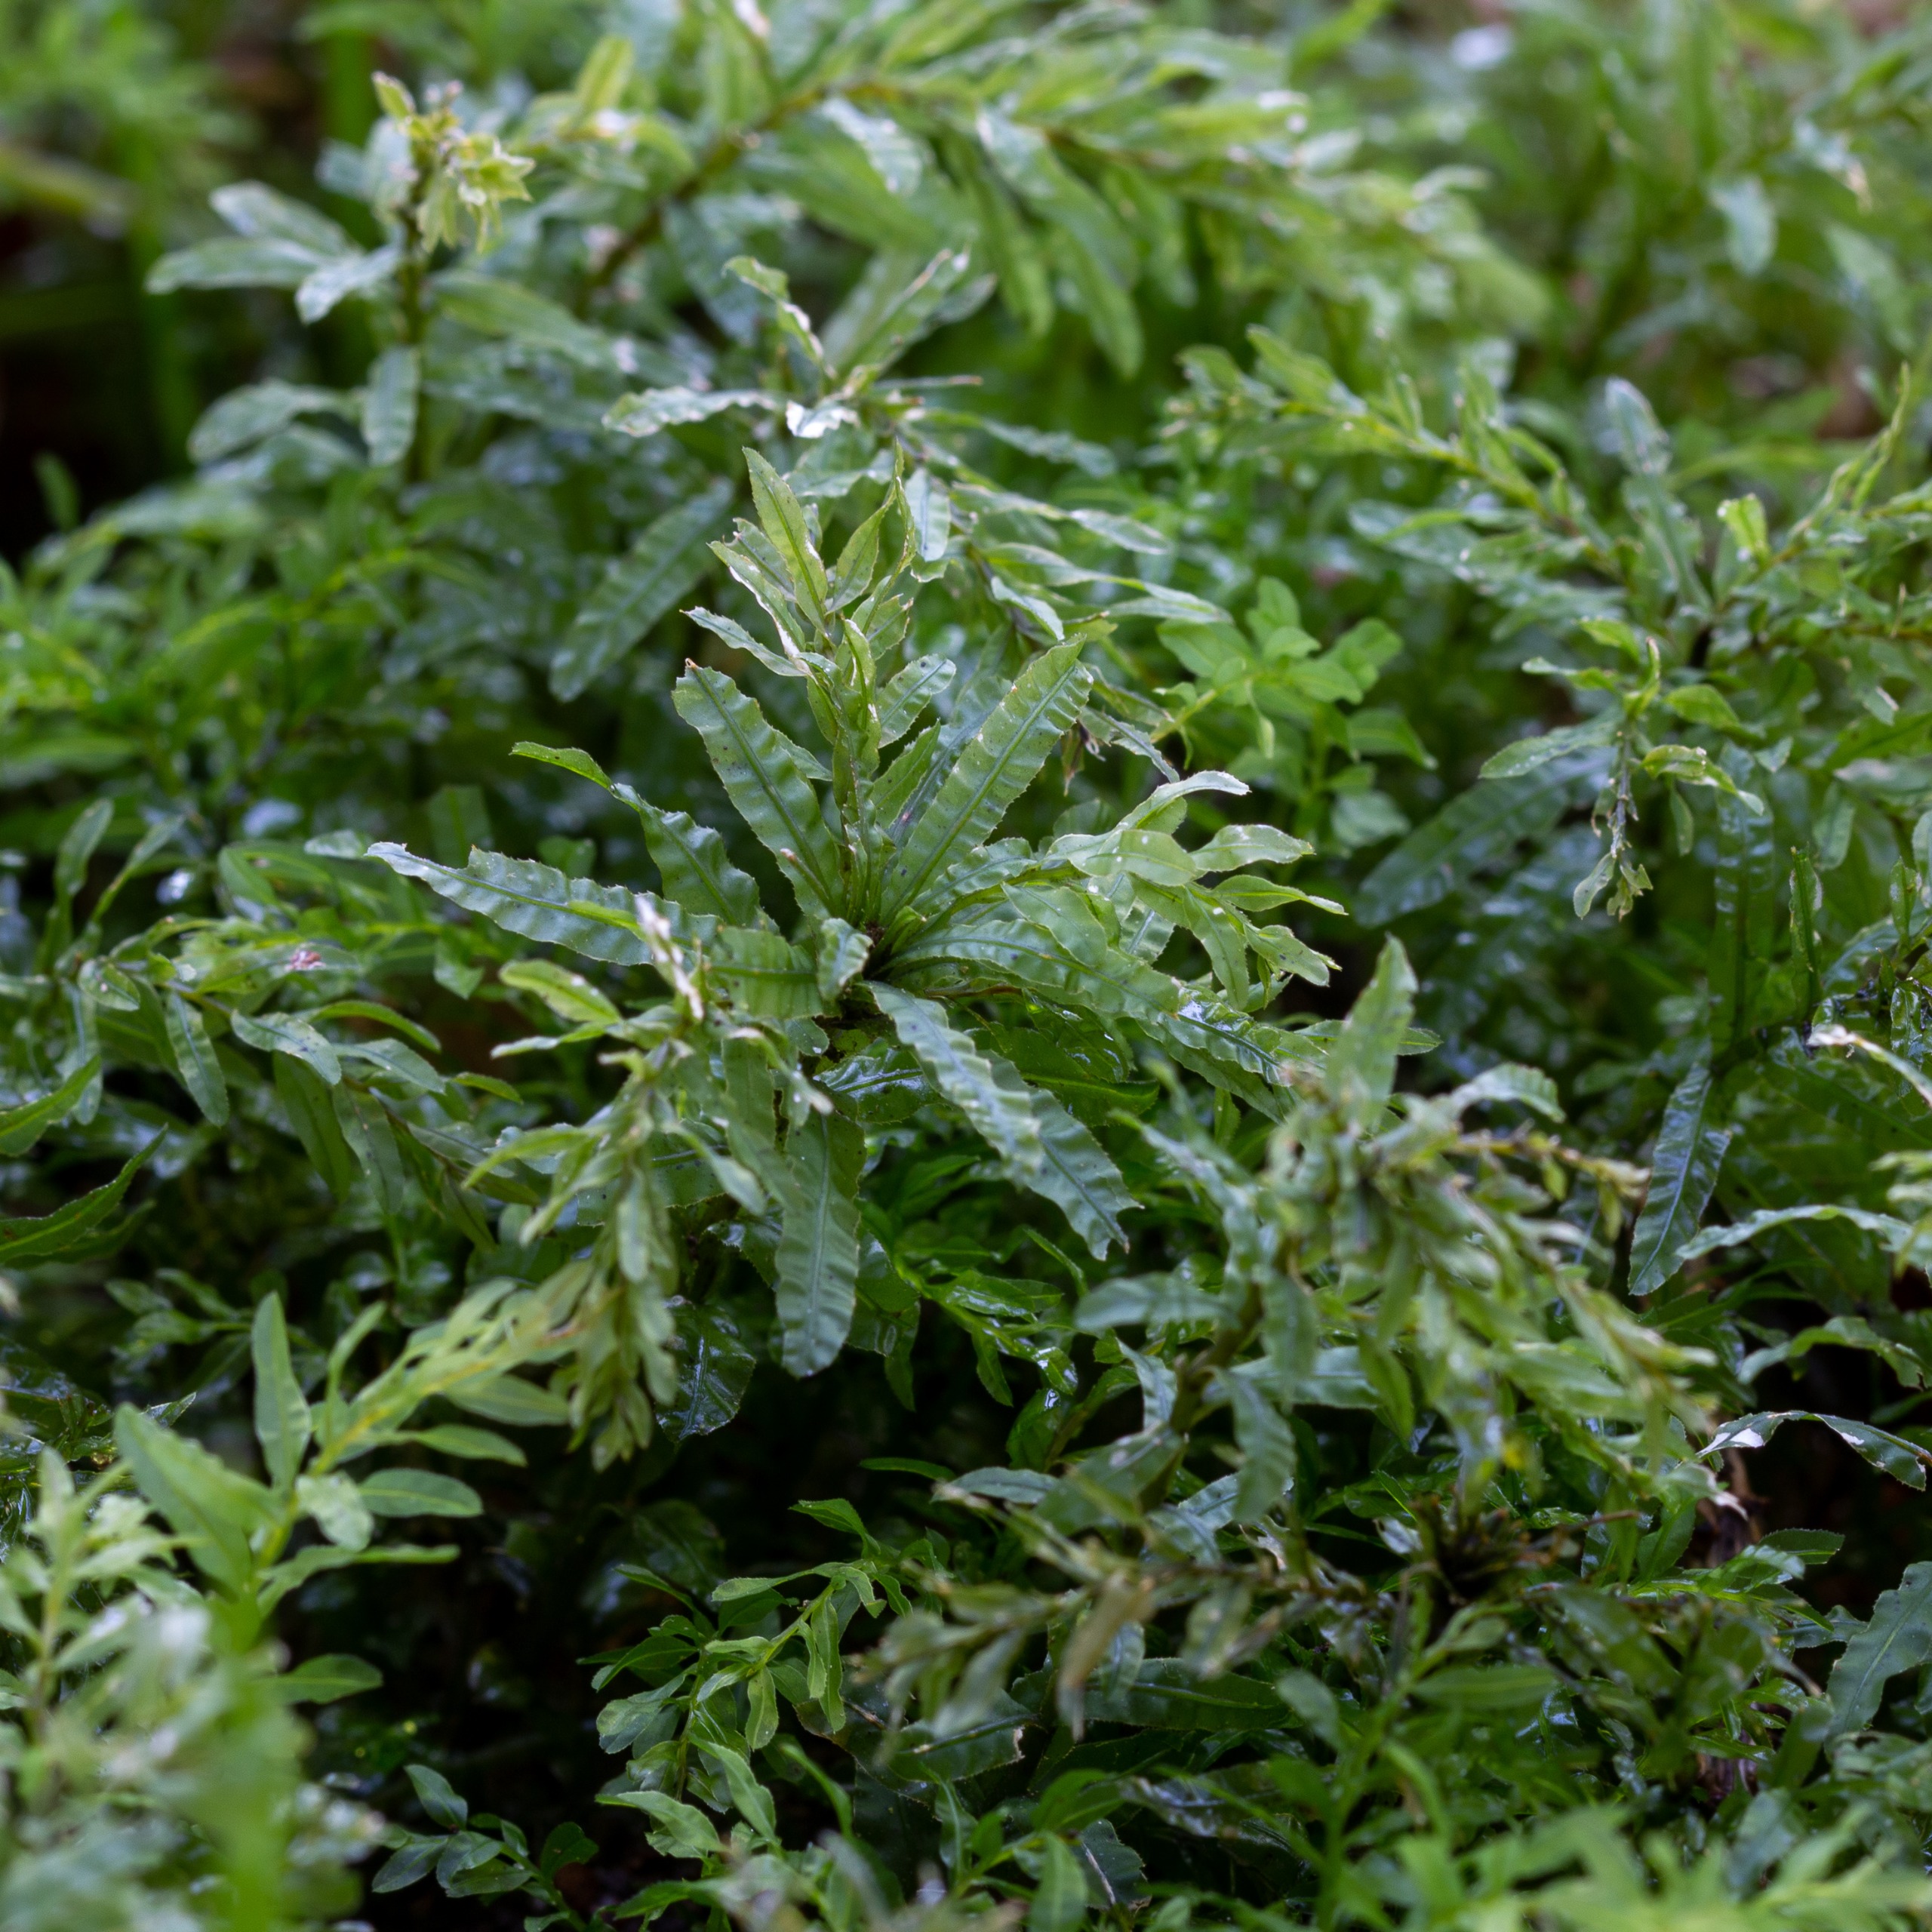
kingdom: Plantae
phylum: Bryophyta
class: Bryopsida
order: Bryales
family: Mniaceae
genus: Plagiomnium
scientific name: Plagiomnium undulatum
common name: Bølget krybstjerne
